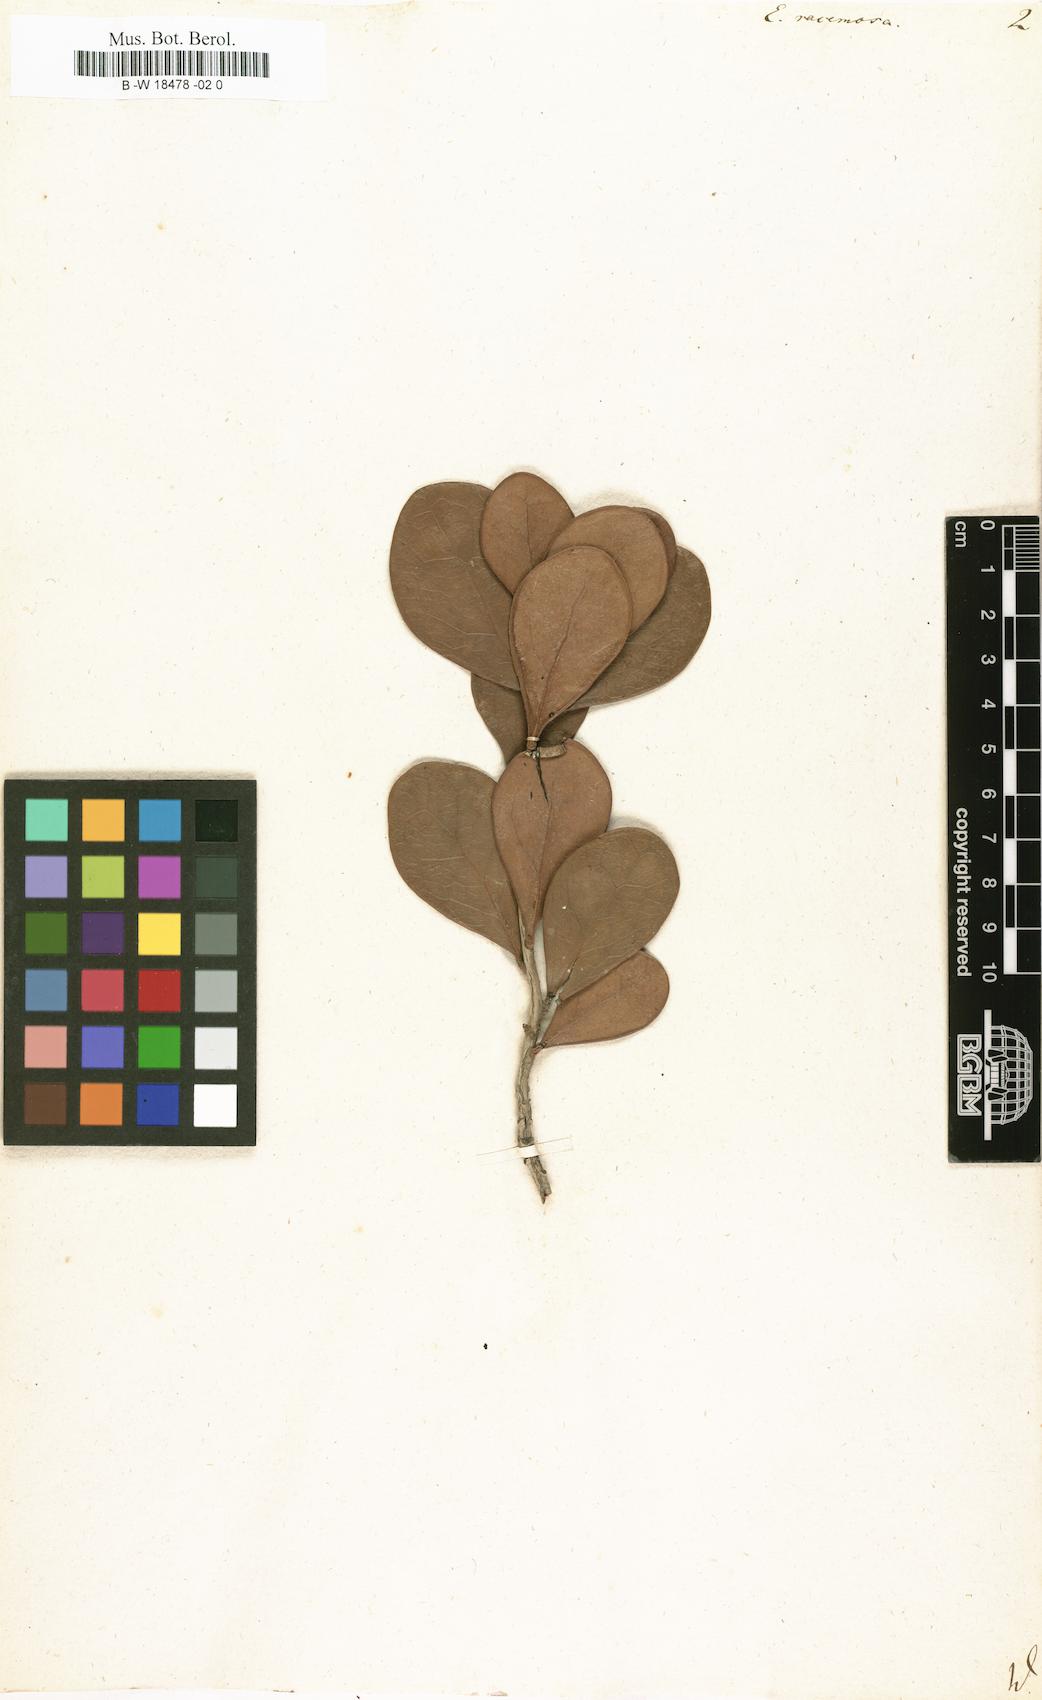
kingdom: Plantae
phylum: Tracheophyta
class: Magnoliopsida
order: Ericales
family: Ebenaceae
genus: Euclea
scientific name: Euclea racemosa
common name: Dune guarri
